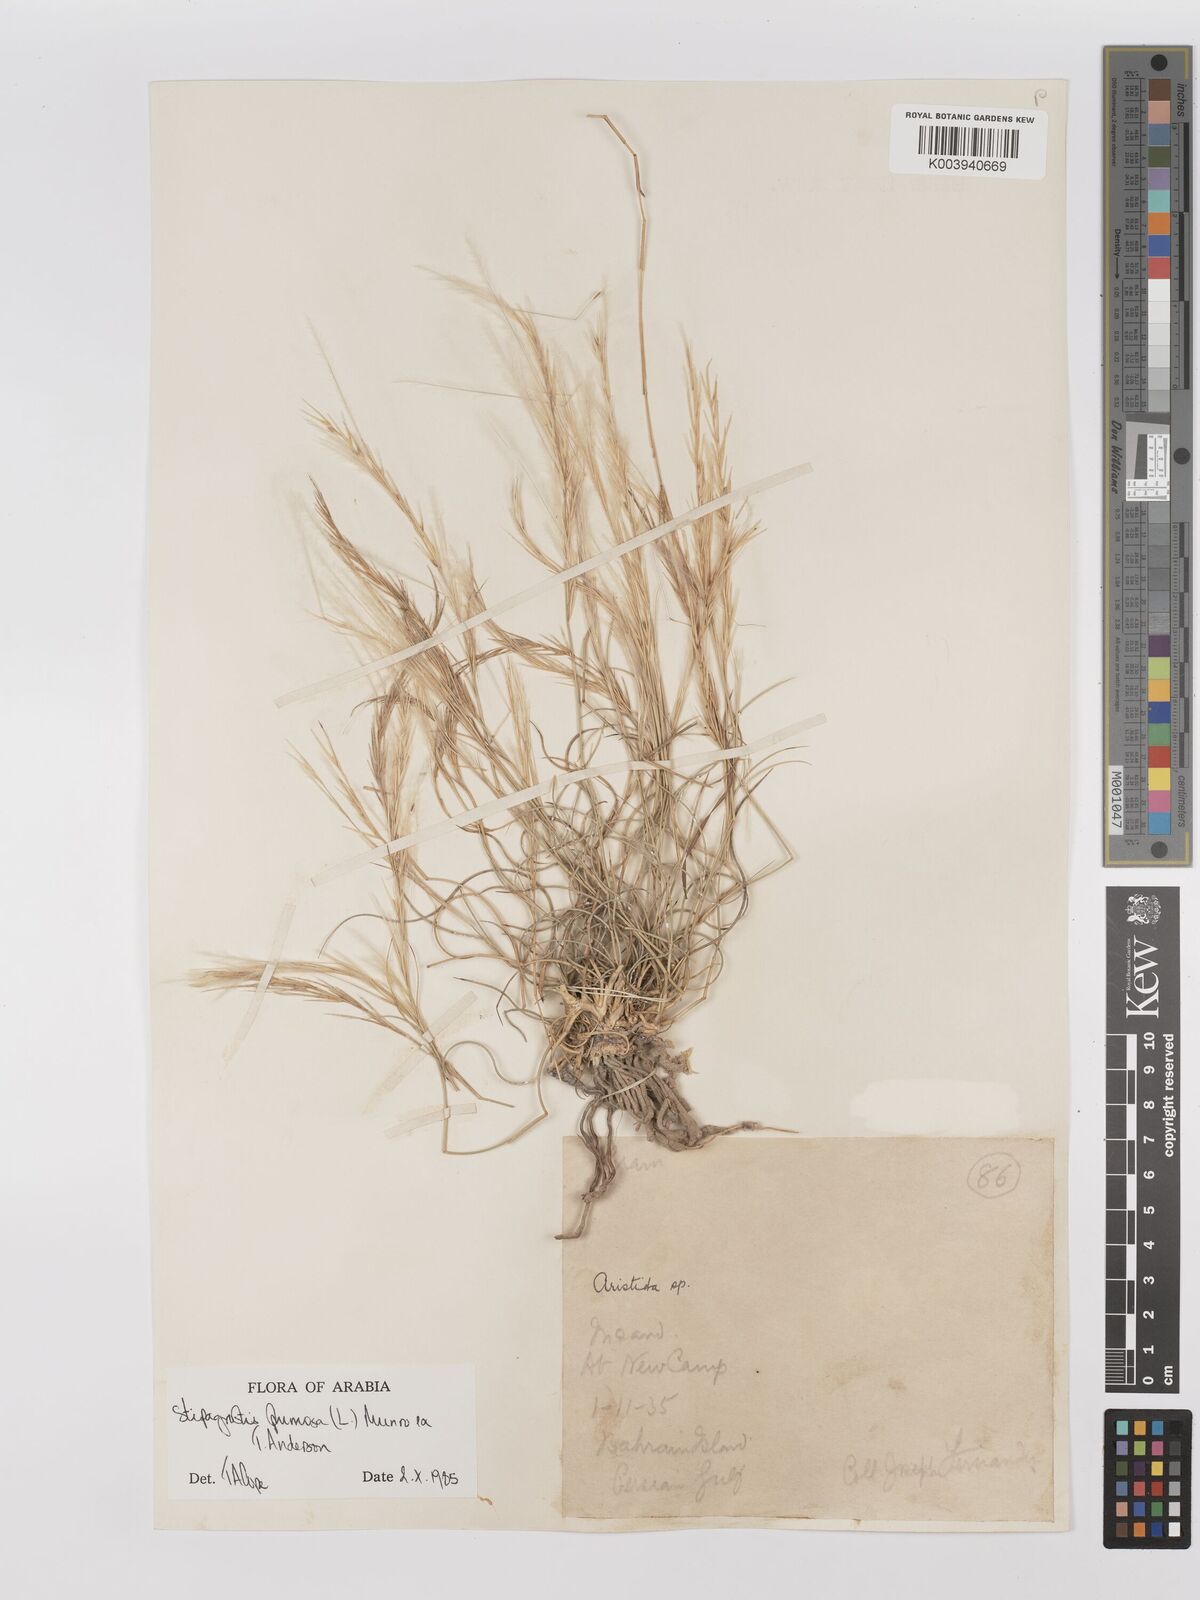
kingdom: Plantae
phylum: Tracheophyta
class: Liliopsida
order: Poales
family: Poaceae
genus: Stipagrostis
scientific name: Stipagrostis plumosa
